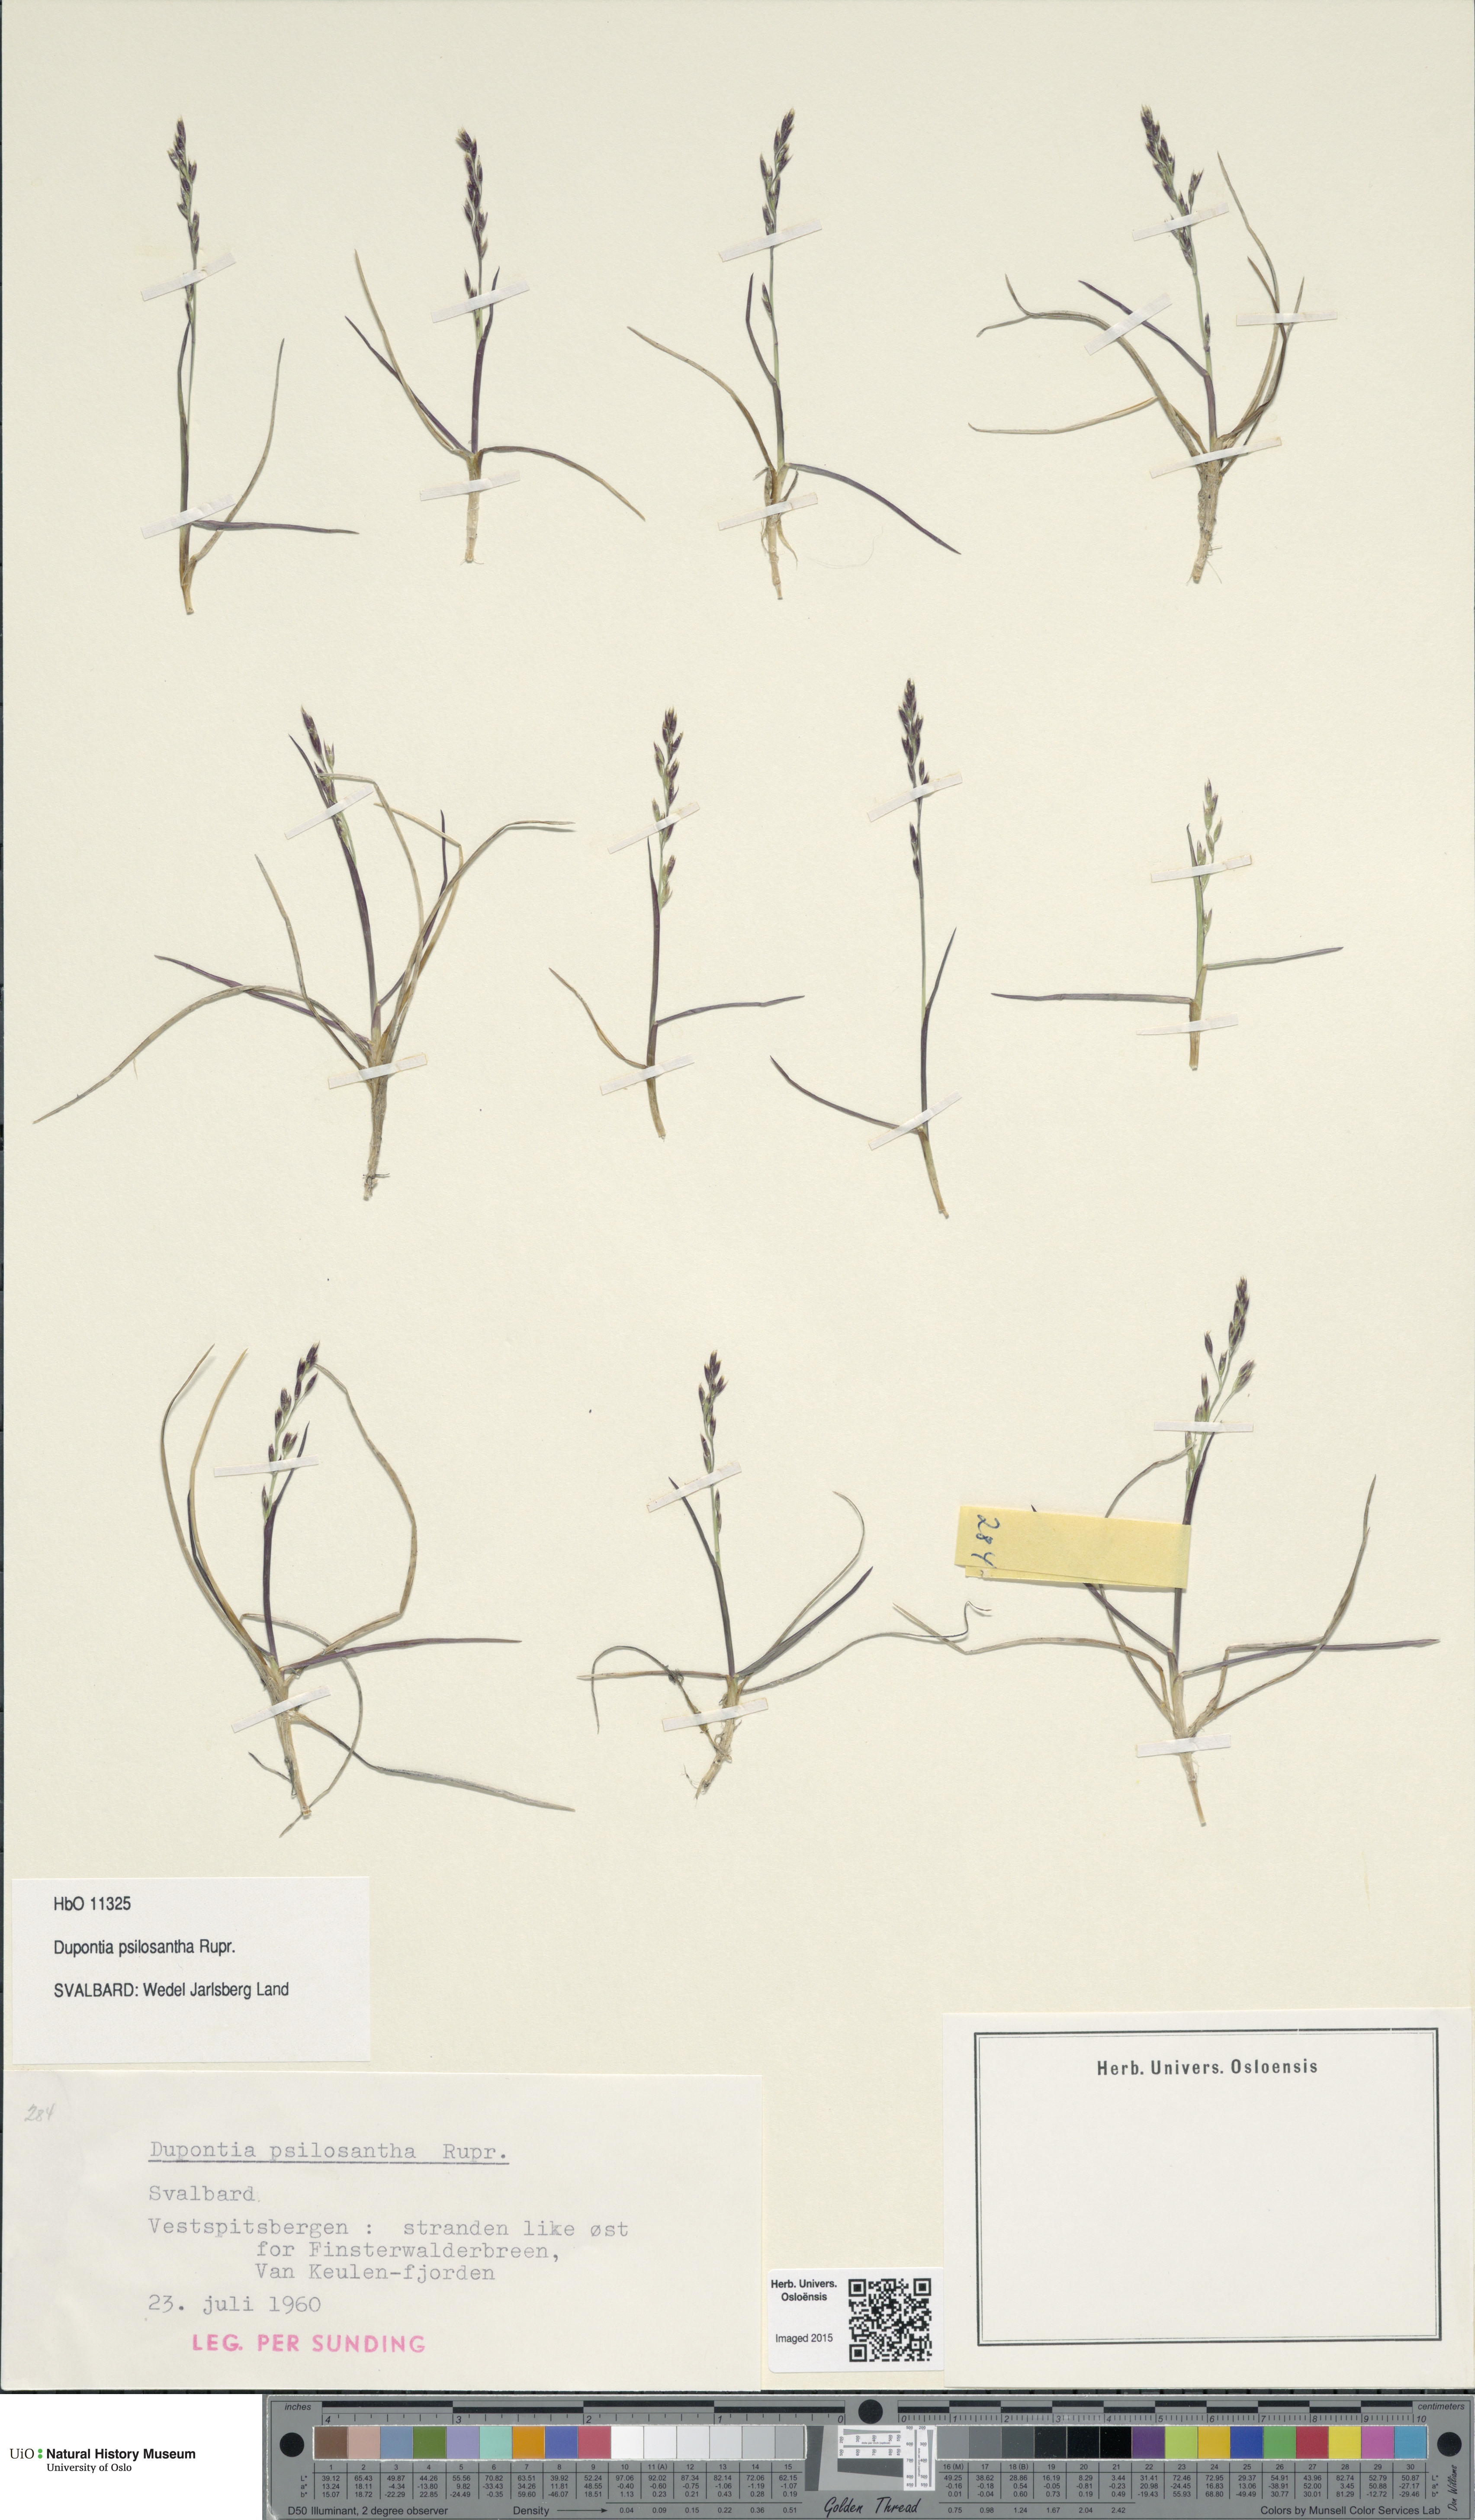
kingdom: Plantae
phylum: Tracheophyta
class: Liliopsida
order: Poales
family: Poaceae
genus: Dupontia
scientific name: Dupontia fisheri
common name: Tundra grass
